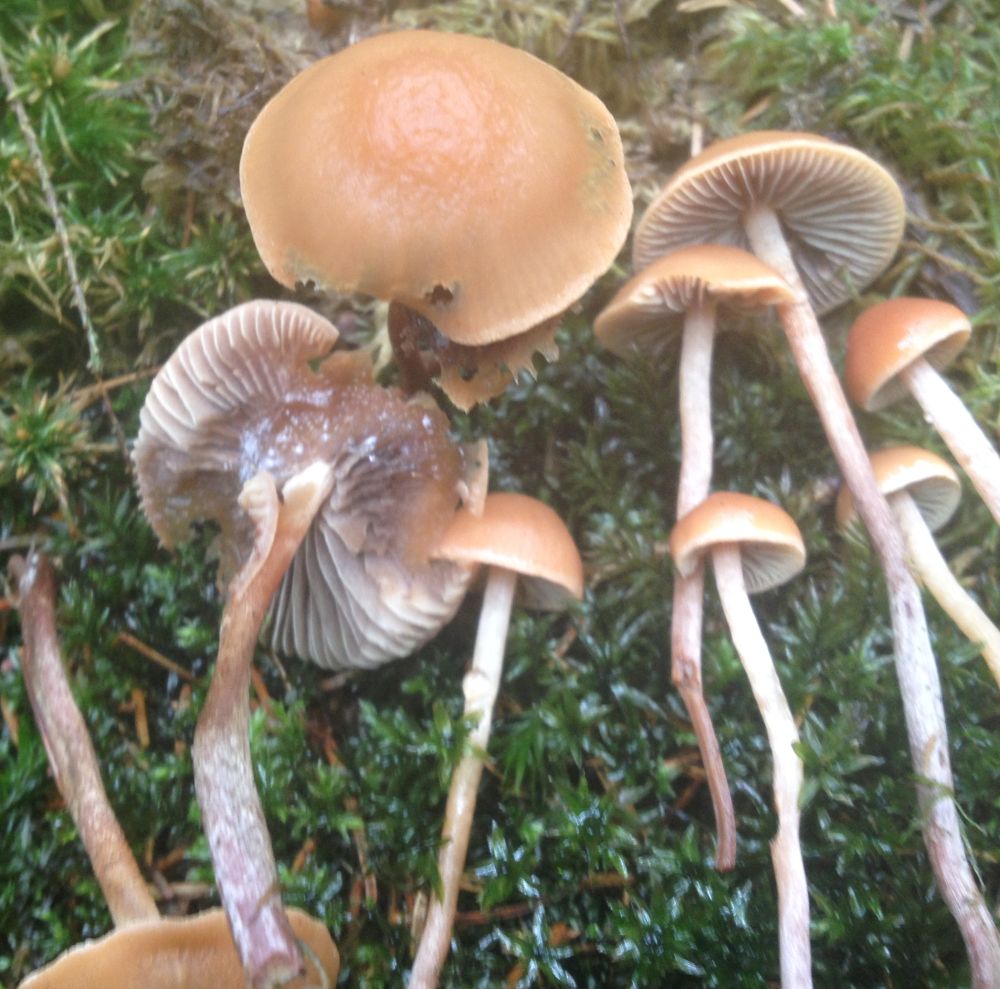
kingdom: Fungi
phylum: Basidiomycota
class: Agaricomycetes
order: Agaricales
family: Strophariaceae
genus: Bogbodia
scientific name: Bogbodia uda
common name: tørve-svovlhat
